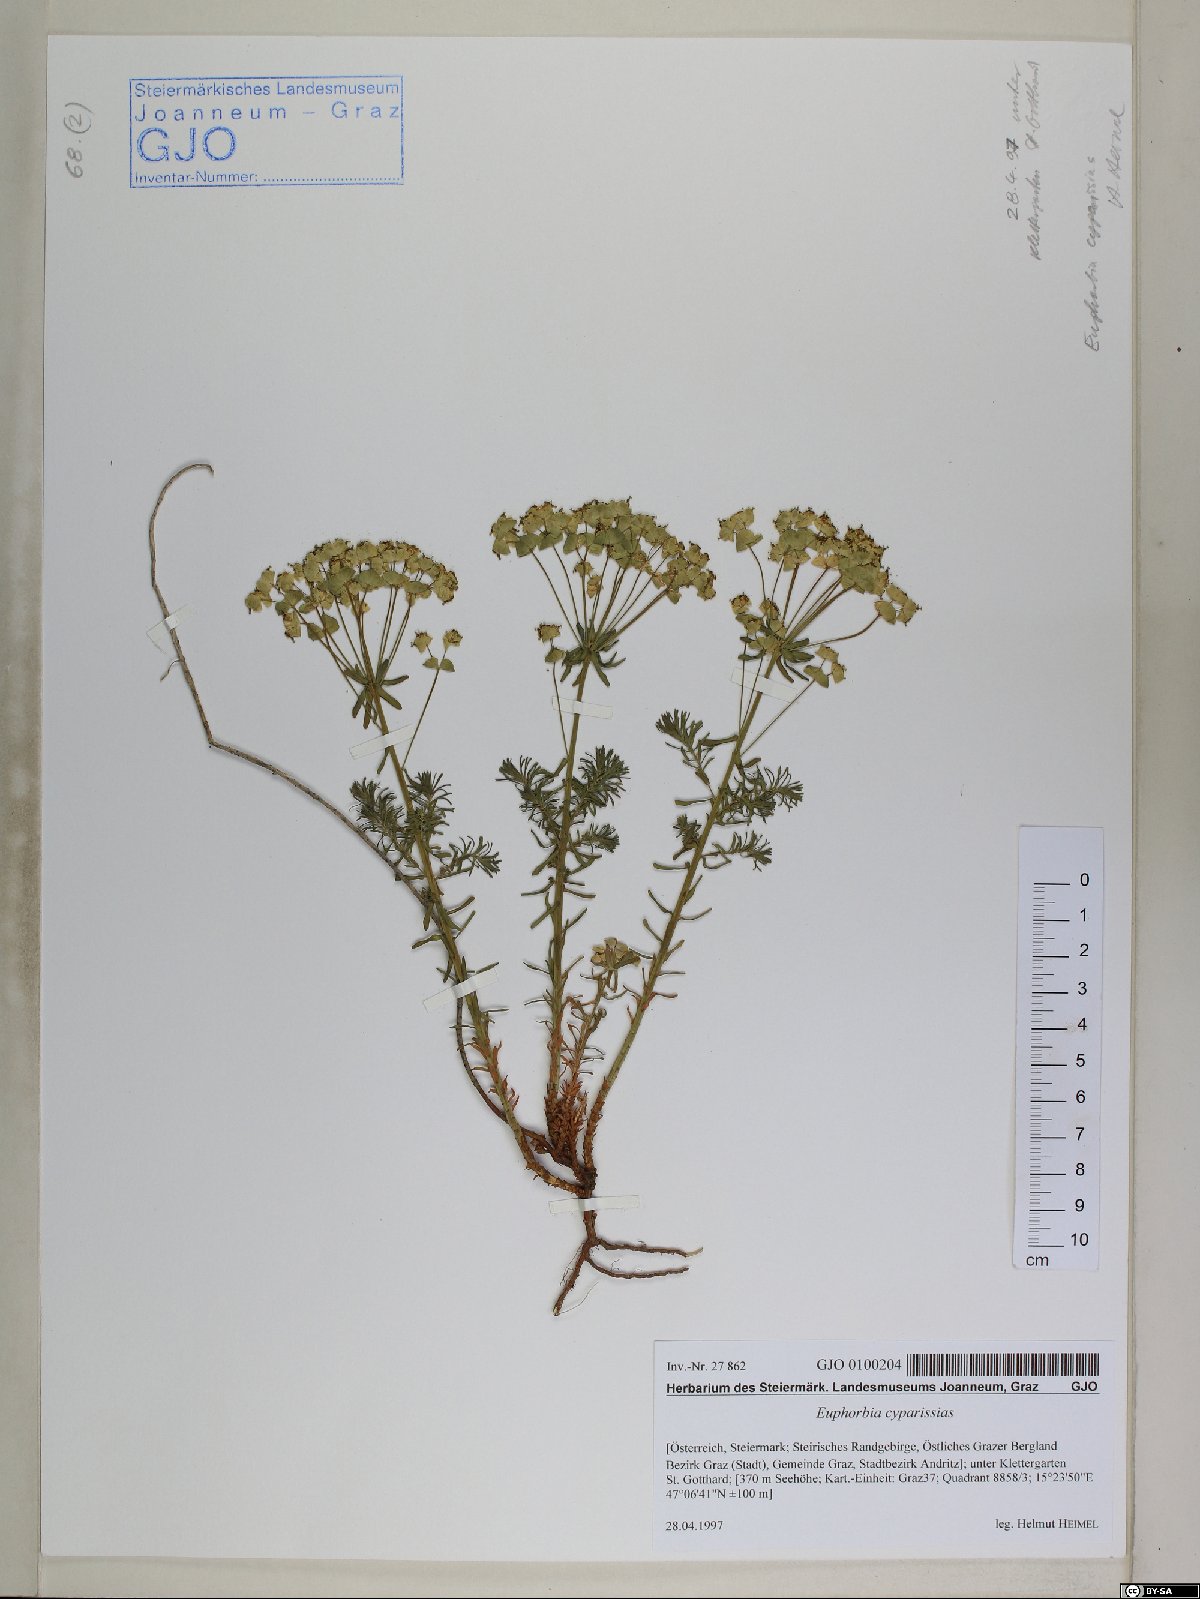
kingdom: Plantae
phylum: Tracheophyta
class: Magnoliopsida
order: Malpighiales
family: Euphorbiaceae
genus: Euphorbia
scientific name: Euphorbia cyparissias
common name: Cypress spurge
